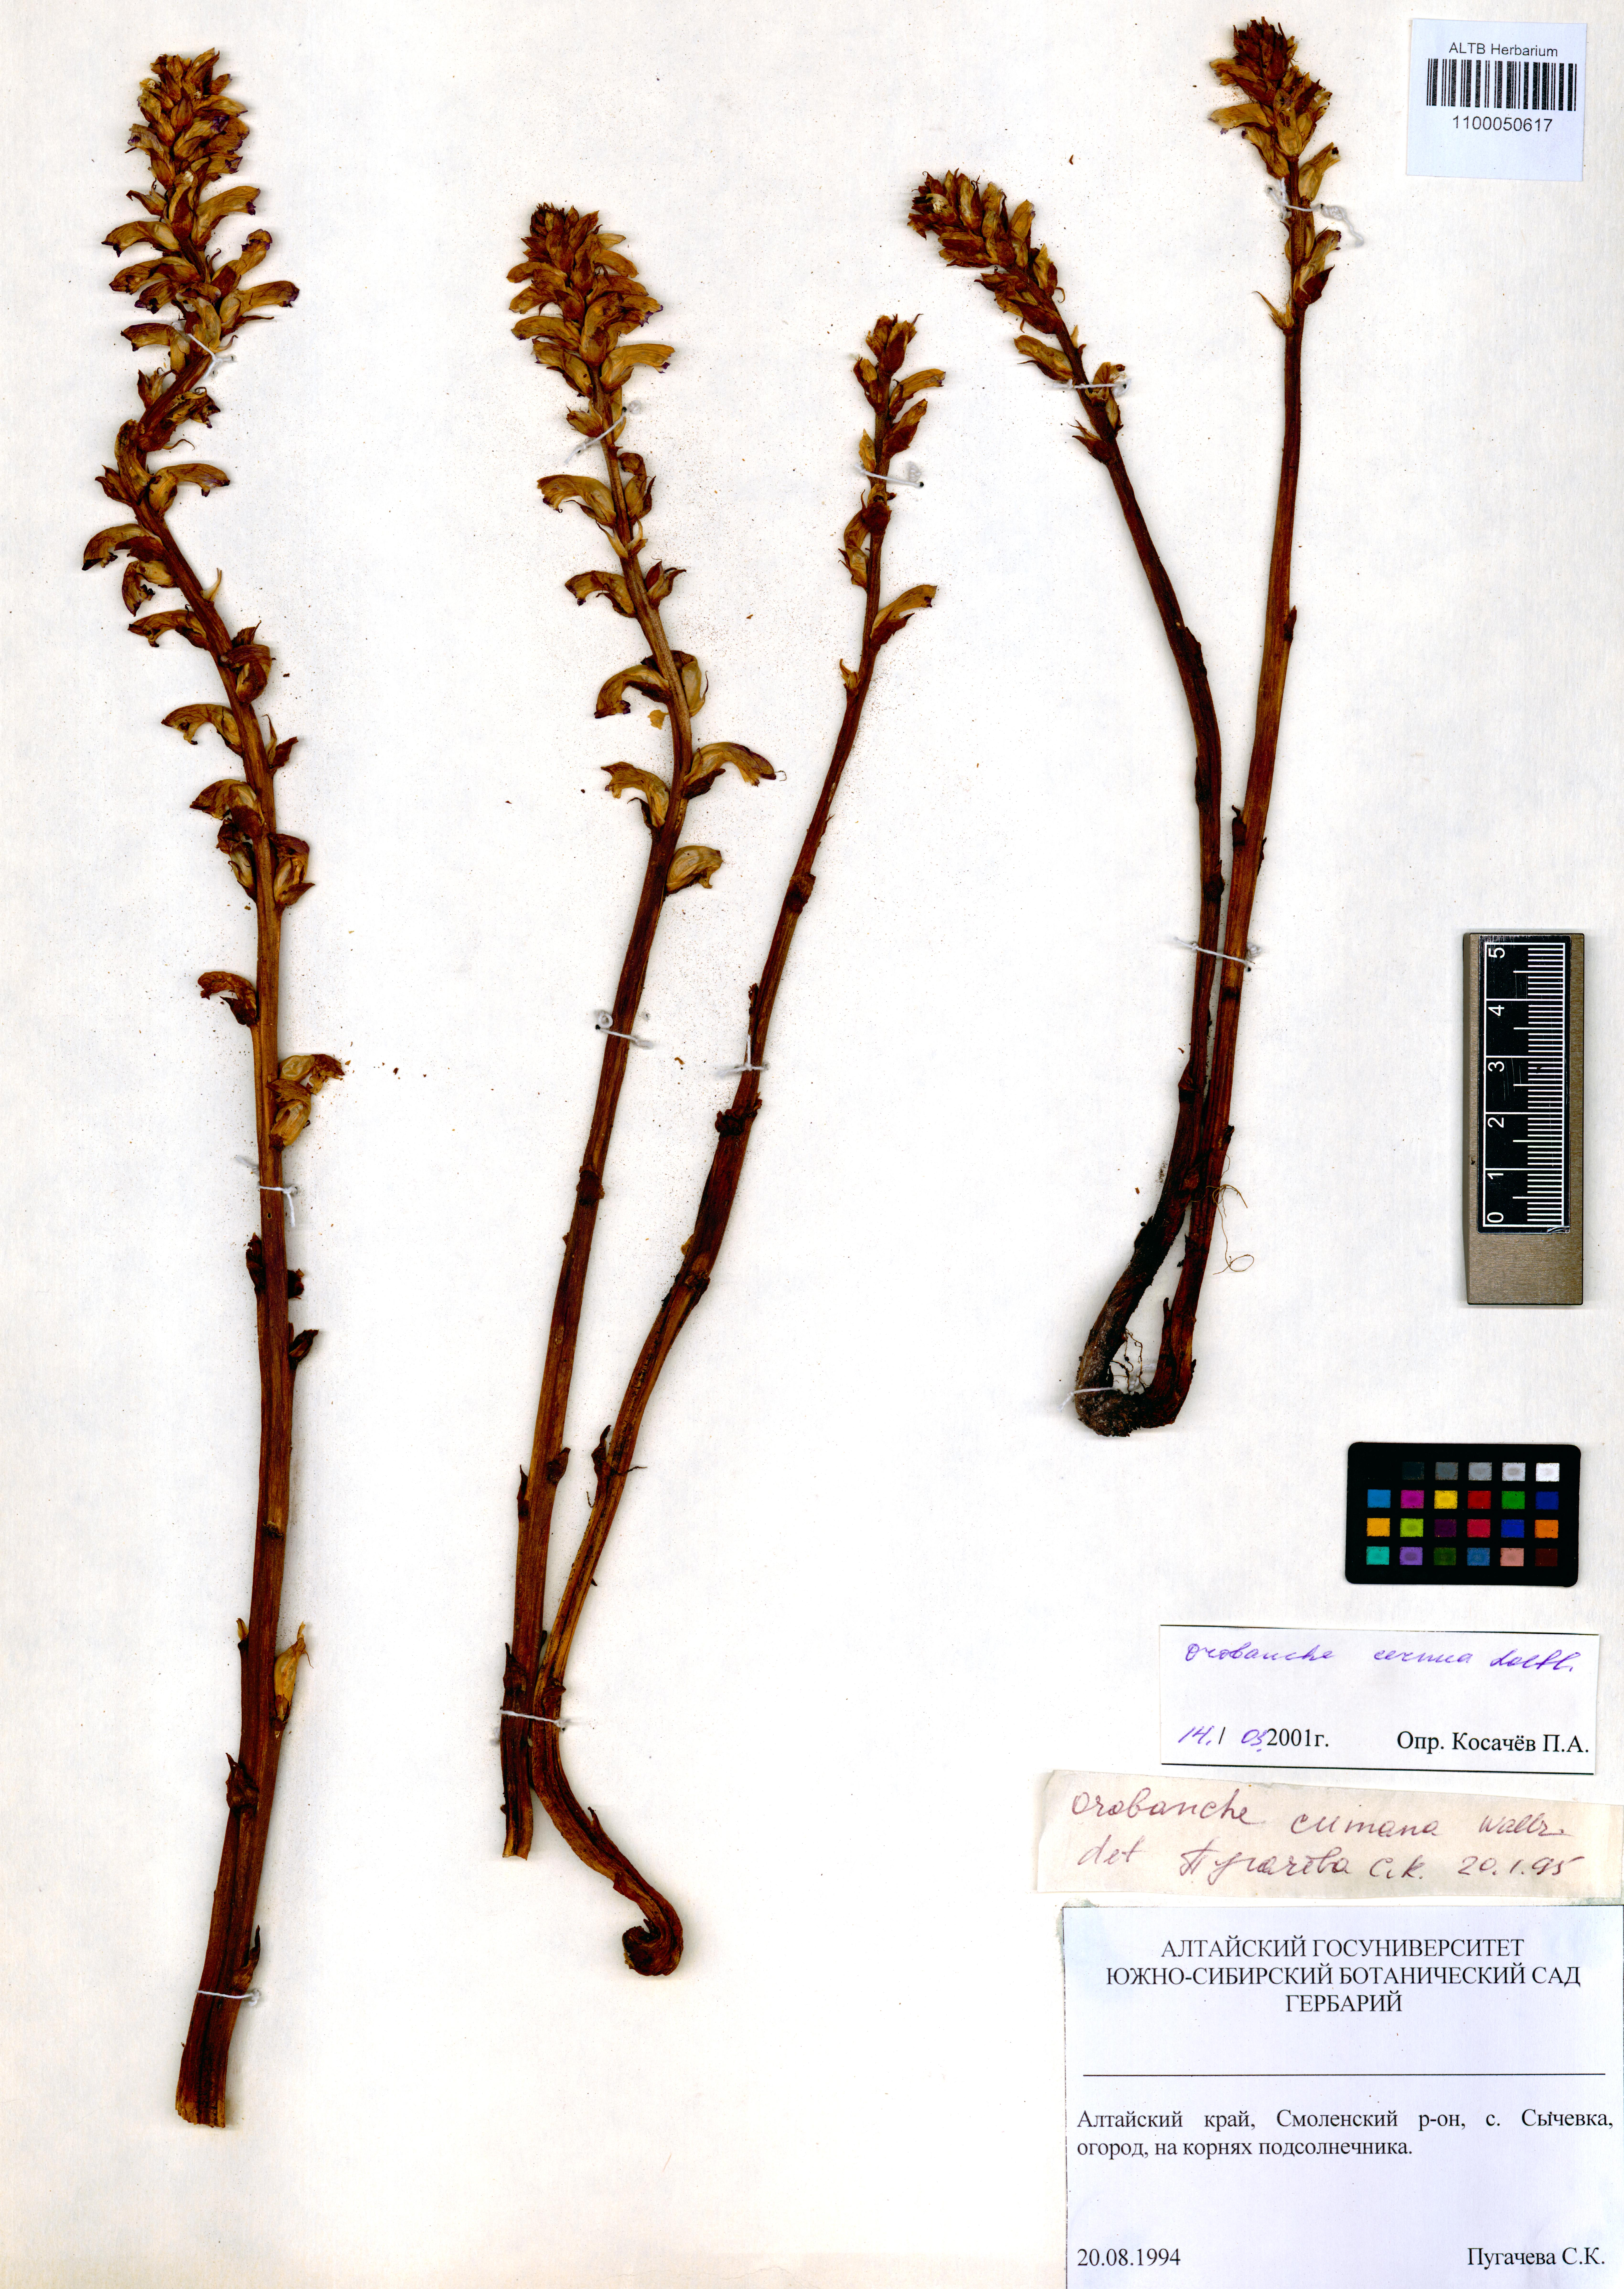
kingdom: Plantae
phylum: Tracheophyta
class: Magnoliopsida
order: Lamiales
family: Orobanchaceae
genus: Orobanche
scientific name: Orobanche cernua
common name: Australian broomrape
